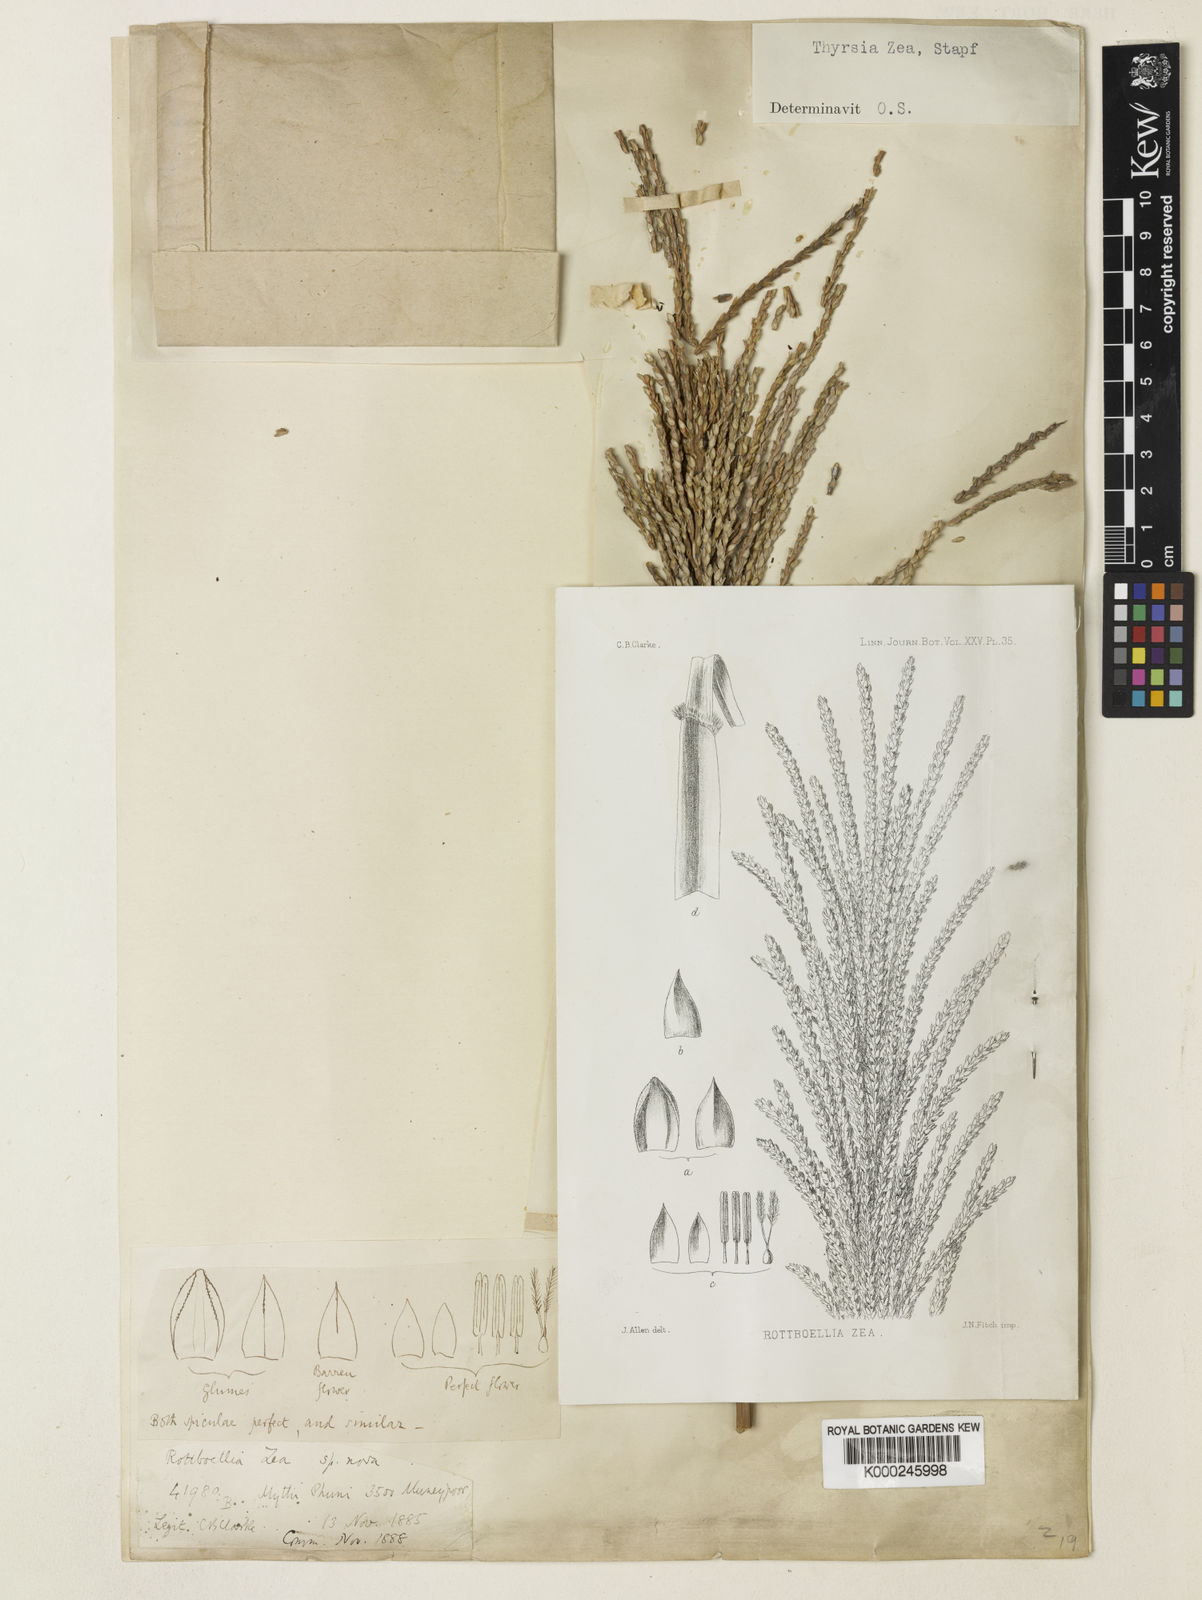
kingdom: Plantae
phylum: Tracheophyta
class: Liliopsida
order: Poales
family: Poaceae
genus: Thyrsia
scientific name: Thyrsia zea
